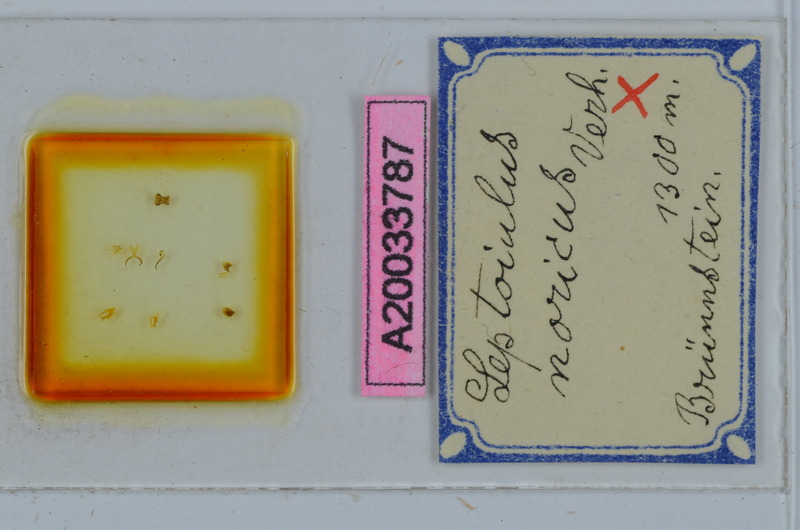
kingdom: Animalia
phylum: Arthropoda
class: Diplopoda
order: Julida
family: Julidae
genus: Leptoiulus
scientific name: Leptoiulus noricus
